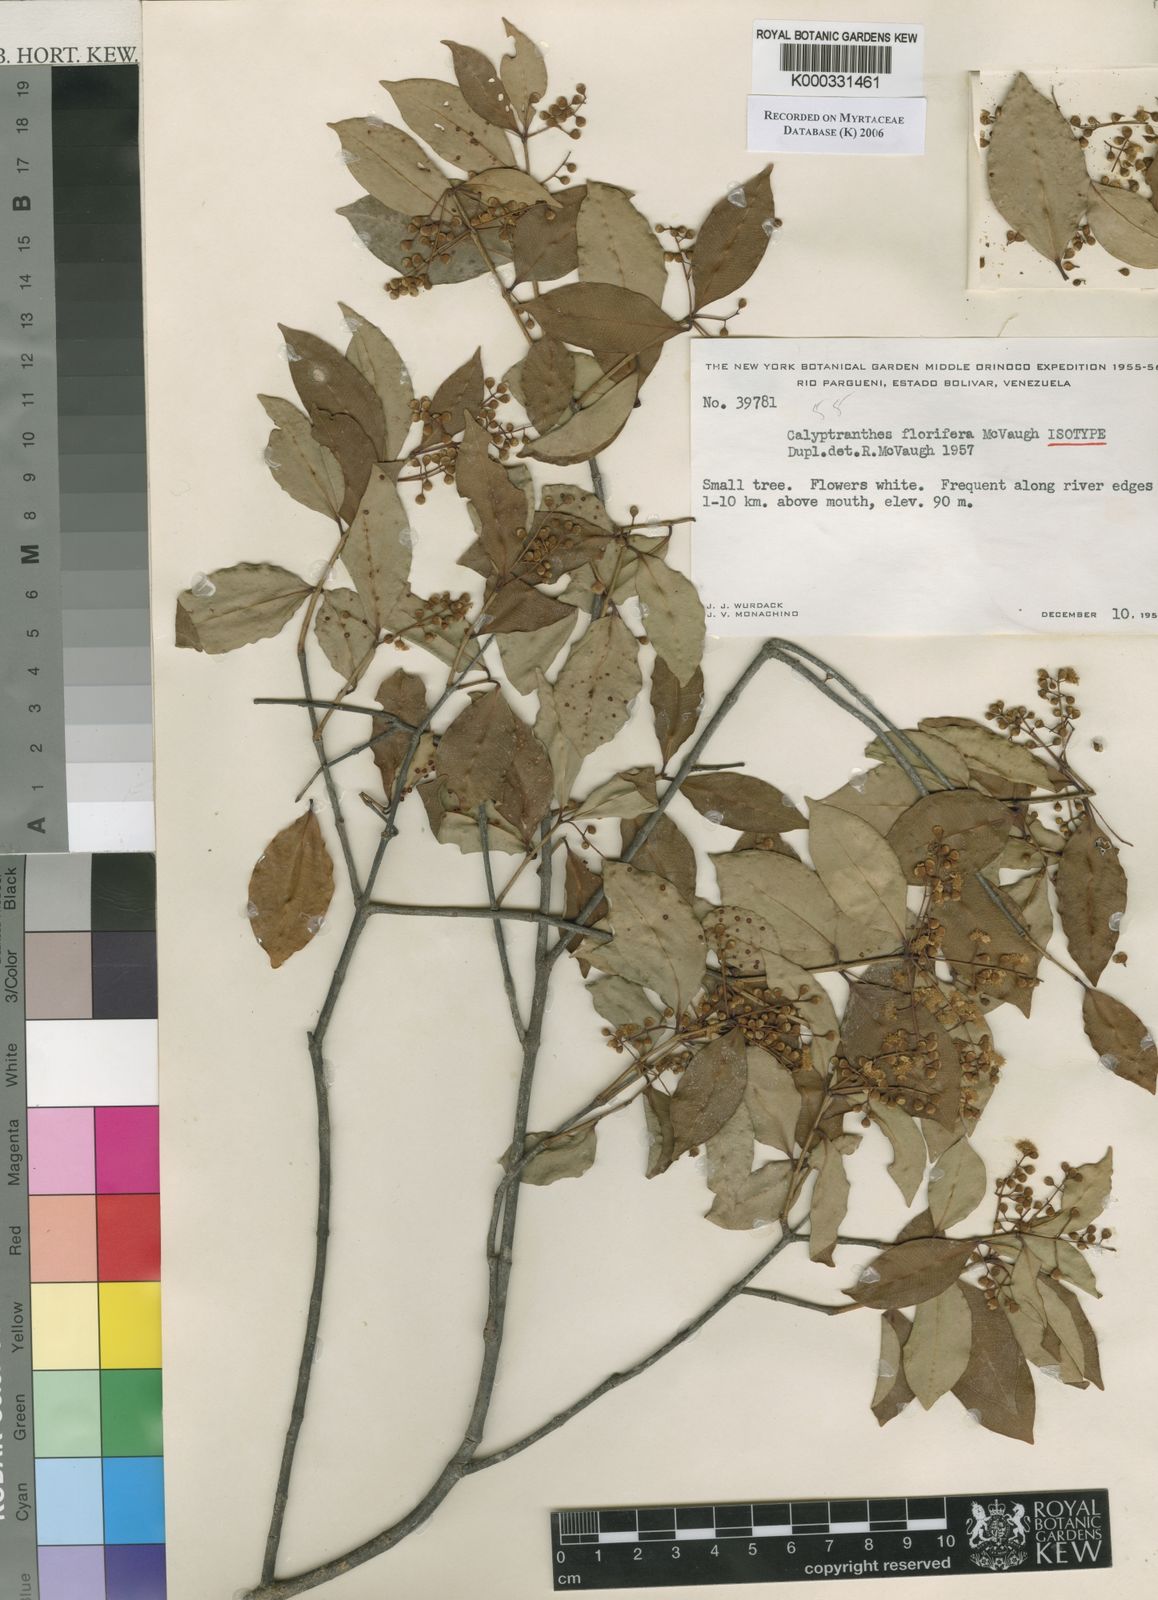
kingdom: Plantae
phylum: Tracheophyta
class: Magnoliopsida
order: Myrtales
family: Myrtaceae
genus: Myrcia
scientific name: Myrcia florifera
